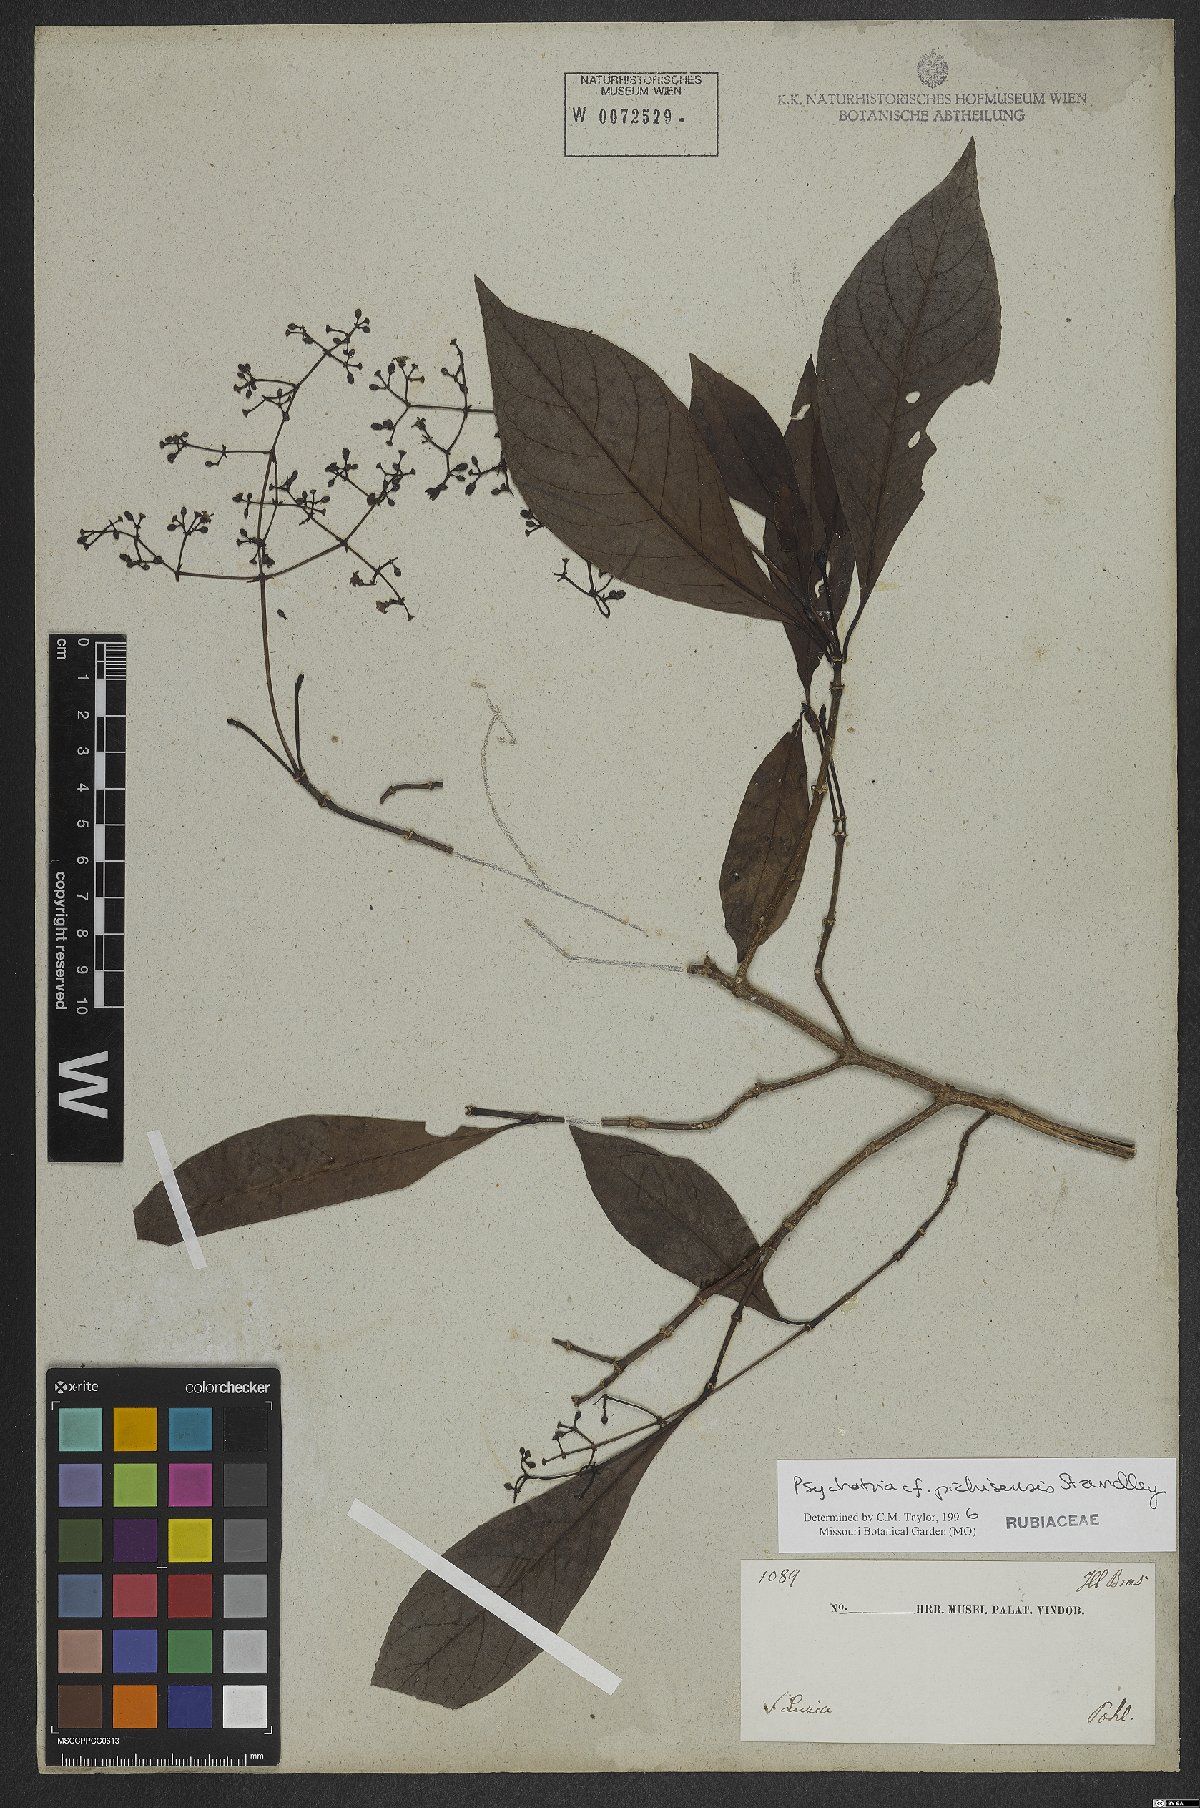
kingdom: Plantae
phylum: Tracheophyta
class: Magnoliopsida
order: Gentianales
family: Rubiaceae
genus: Psychotria
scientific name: Psychotria pichisensis
